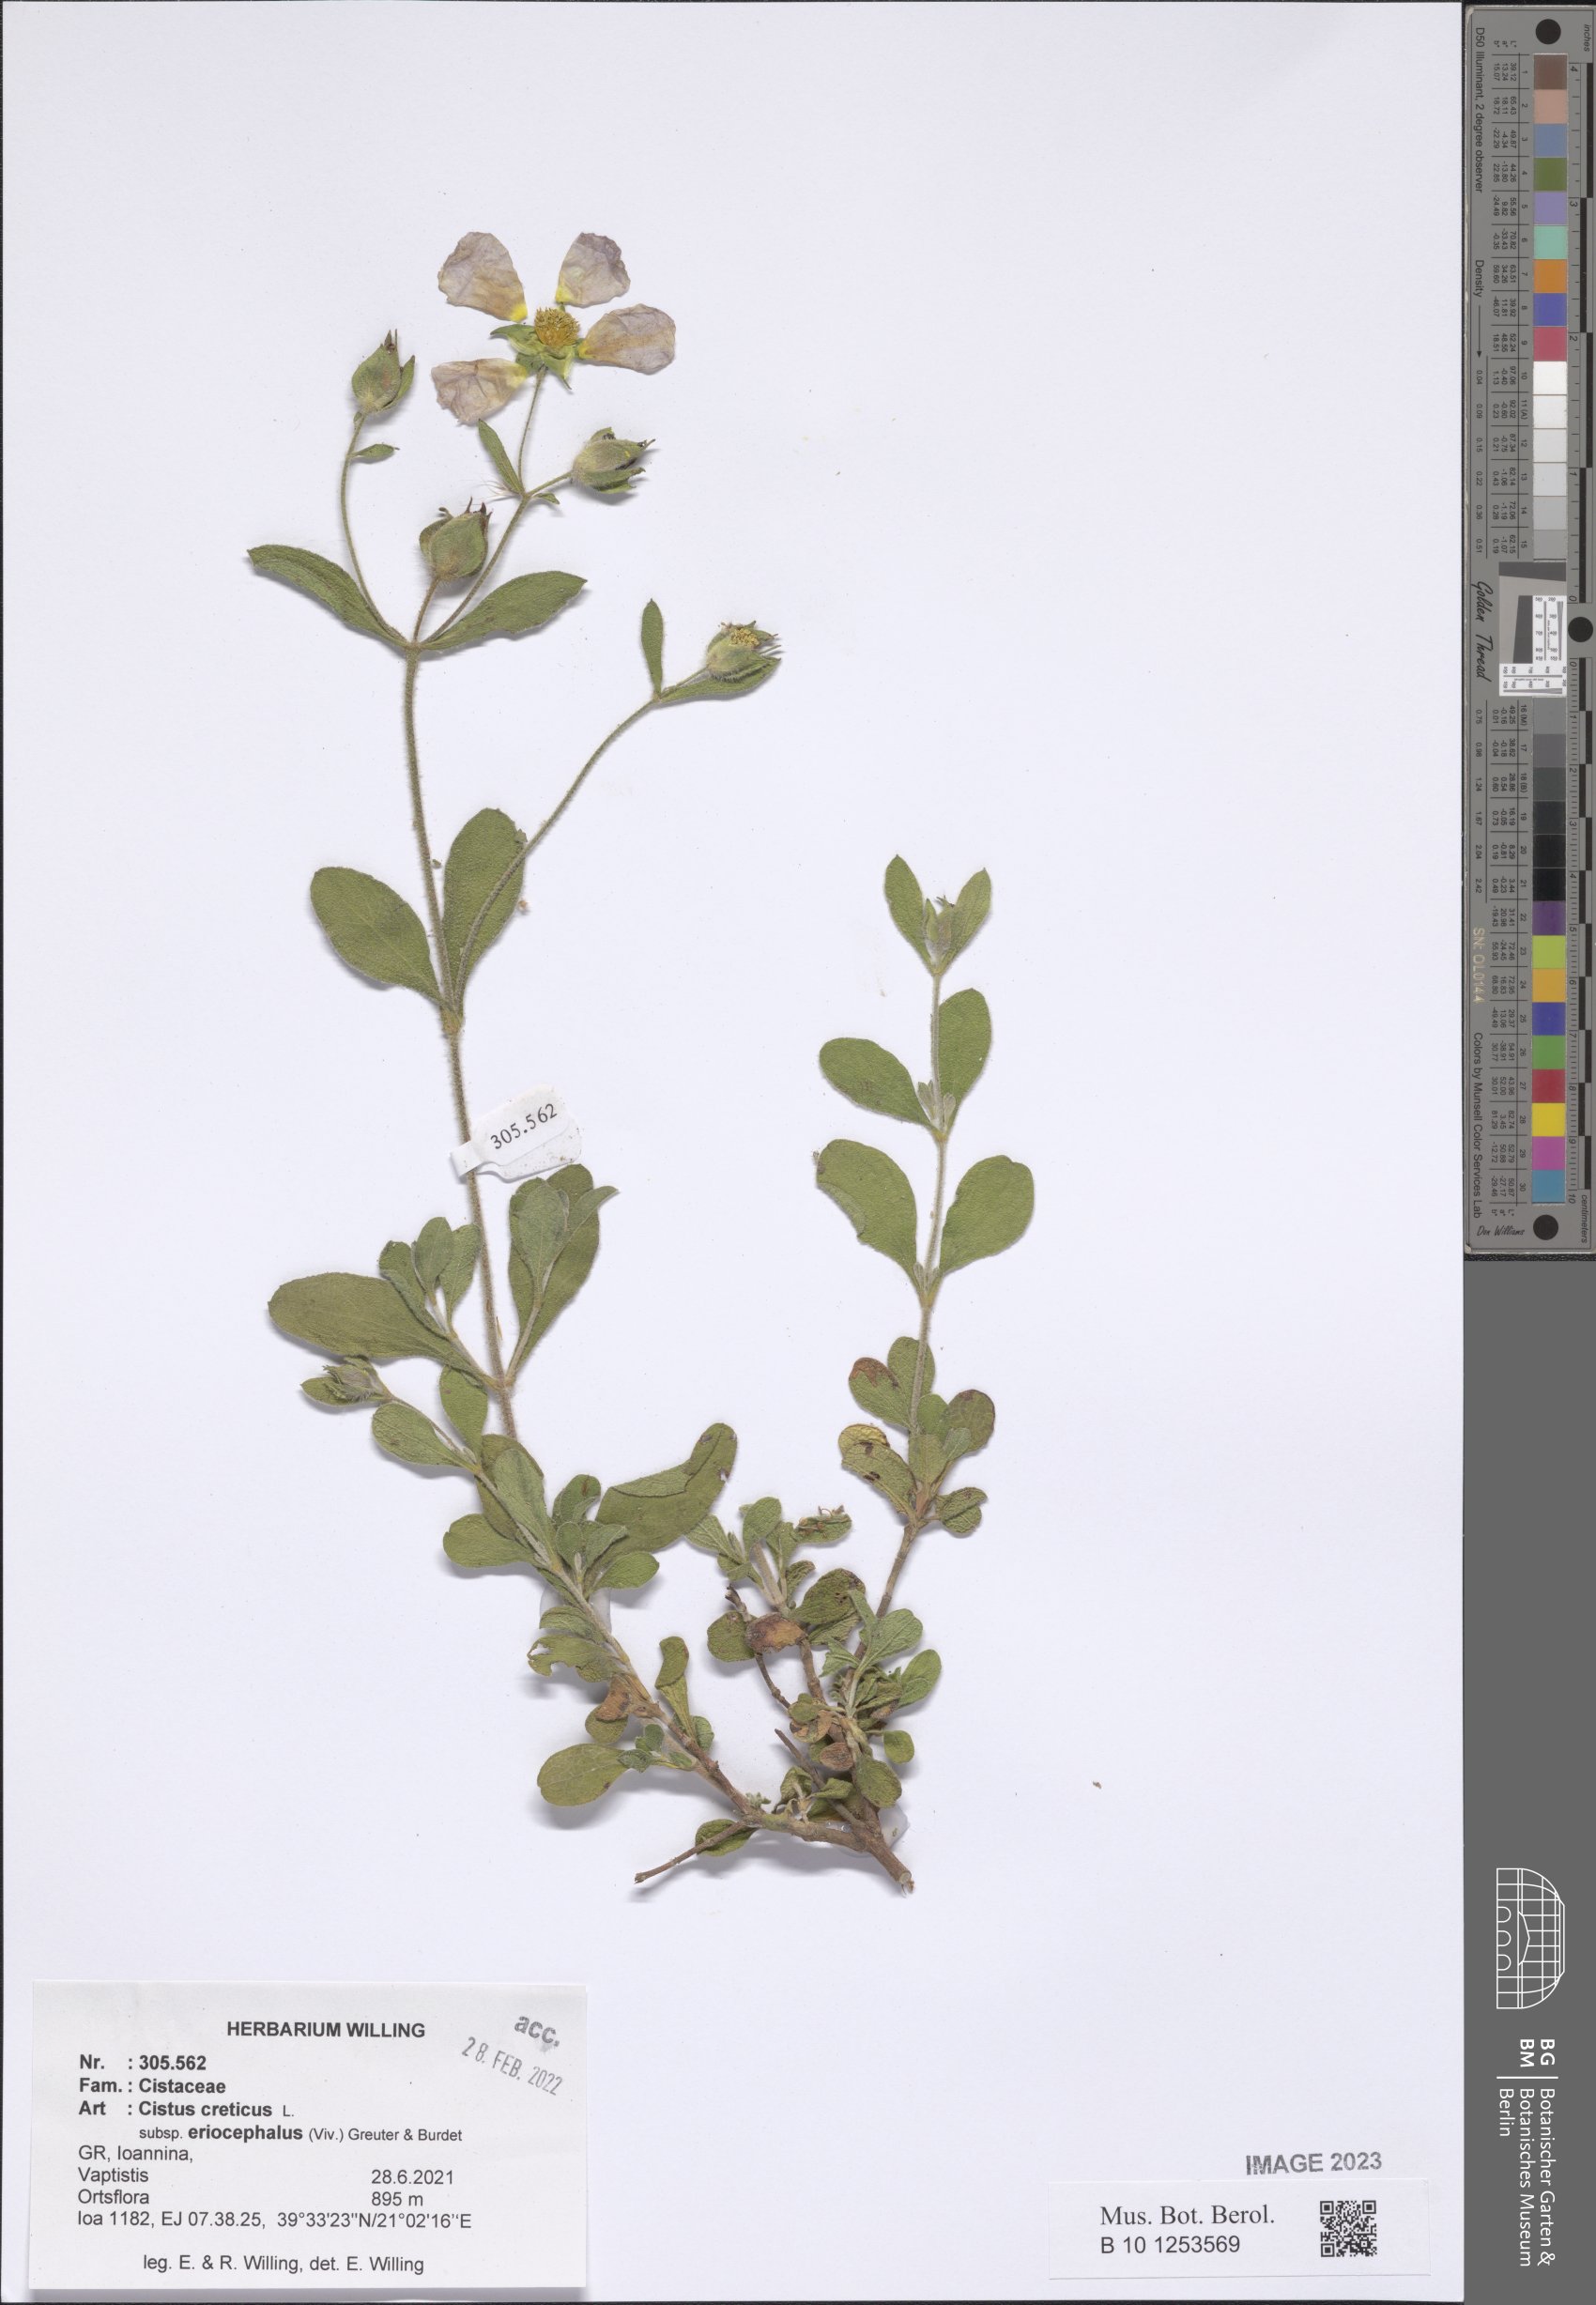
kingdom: Plantae
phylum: Tracheophyta
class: Magnoliopsida
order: Malvales
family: Cistaceae
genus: Cistus
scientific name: Cistus tauricus
